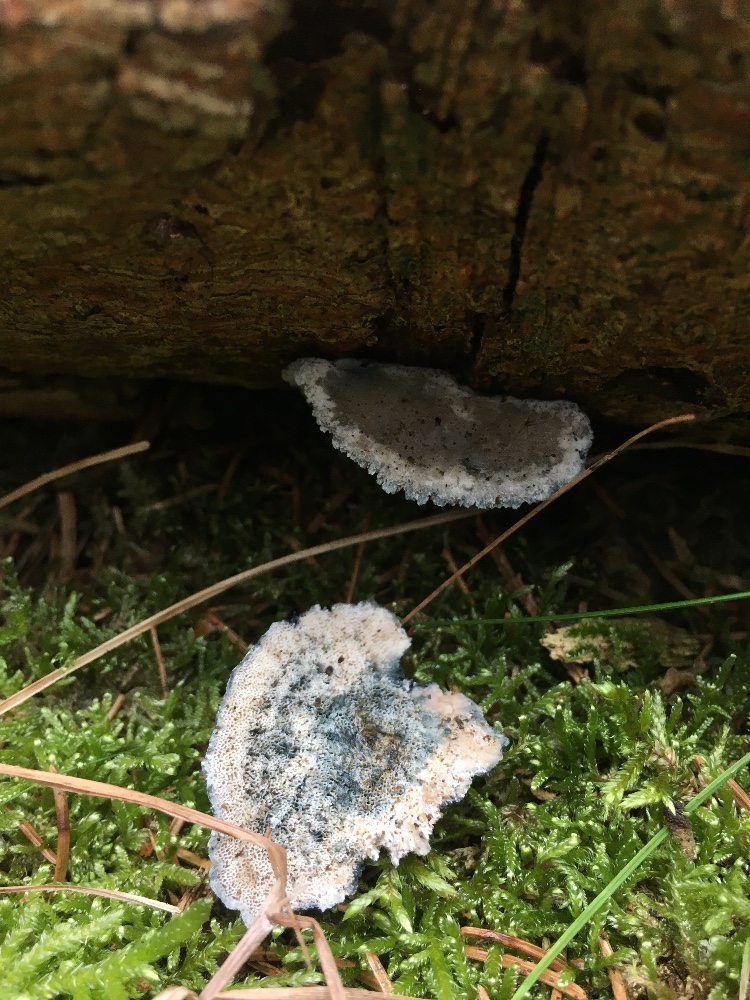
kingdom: Fungi
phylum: Basidiomycota
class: Agaricomycetes
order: Polyporales
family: Polyporaceae
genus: Cyanosporus
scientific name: Cyanosporus caesius
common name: blålig kødporesvamp
